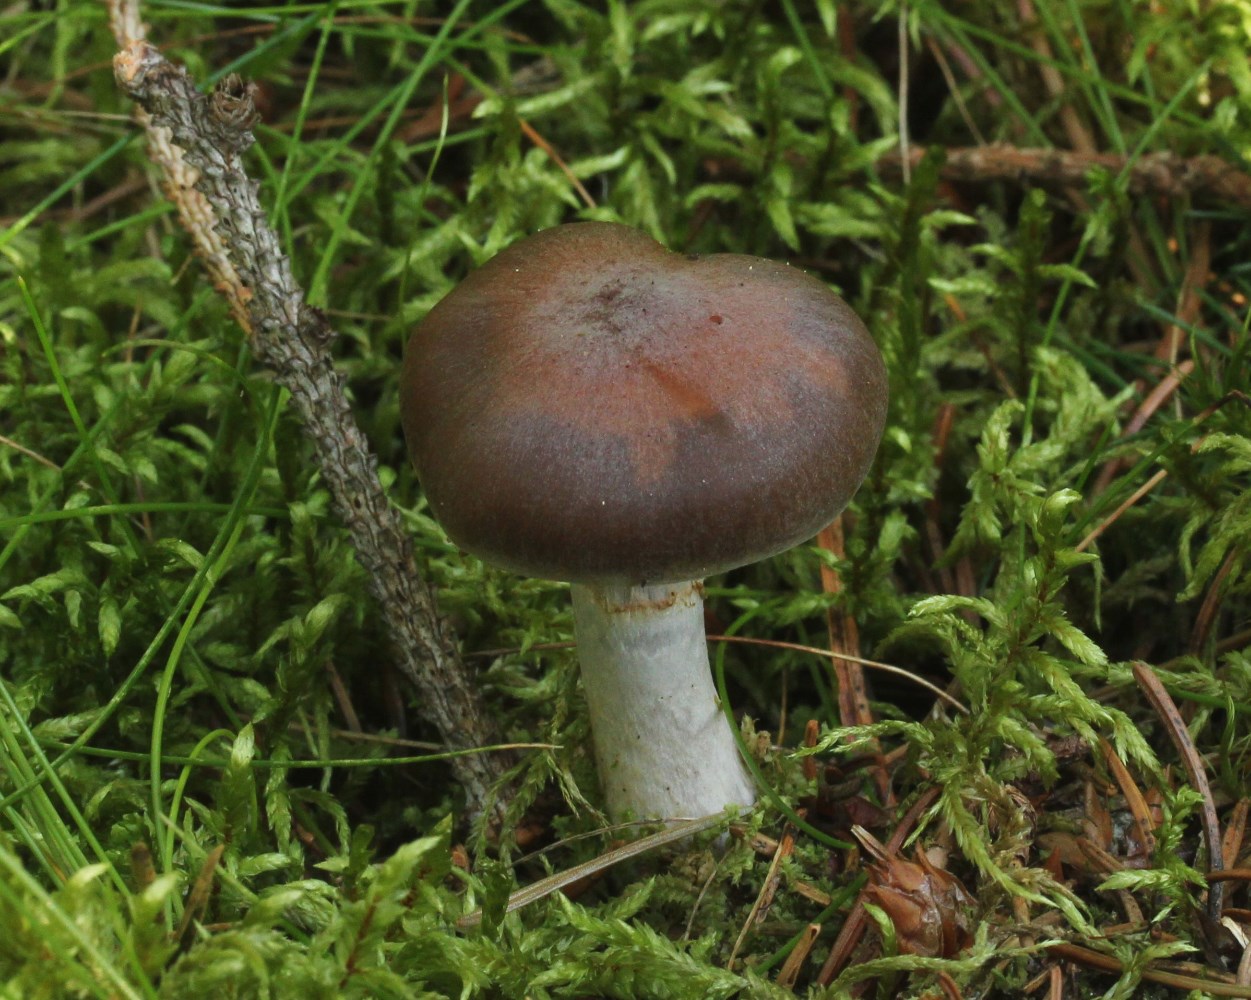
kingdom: Fungi
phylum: Basidiomycota
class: Agaricomycetes
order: Agaricales
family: Cortinariaceae
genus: Cortinarius
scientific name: Cortinarius kauffmanianus
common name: plantage-slørhat
